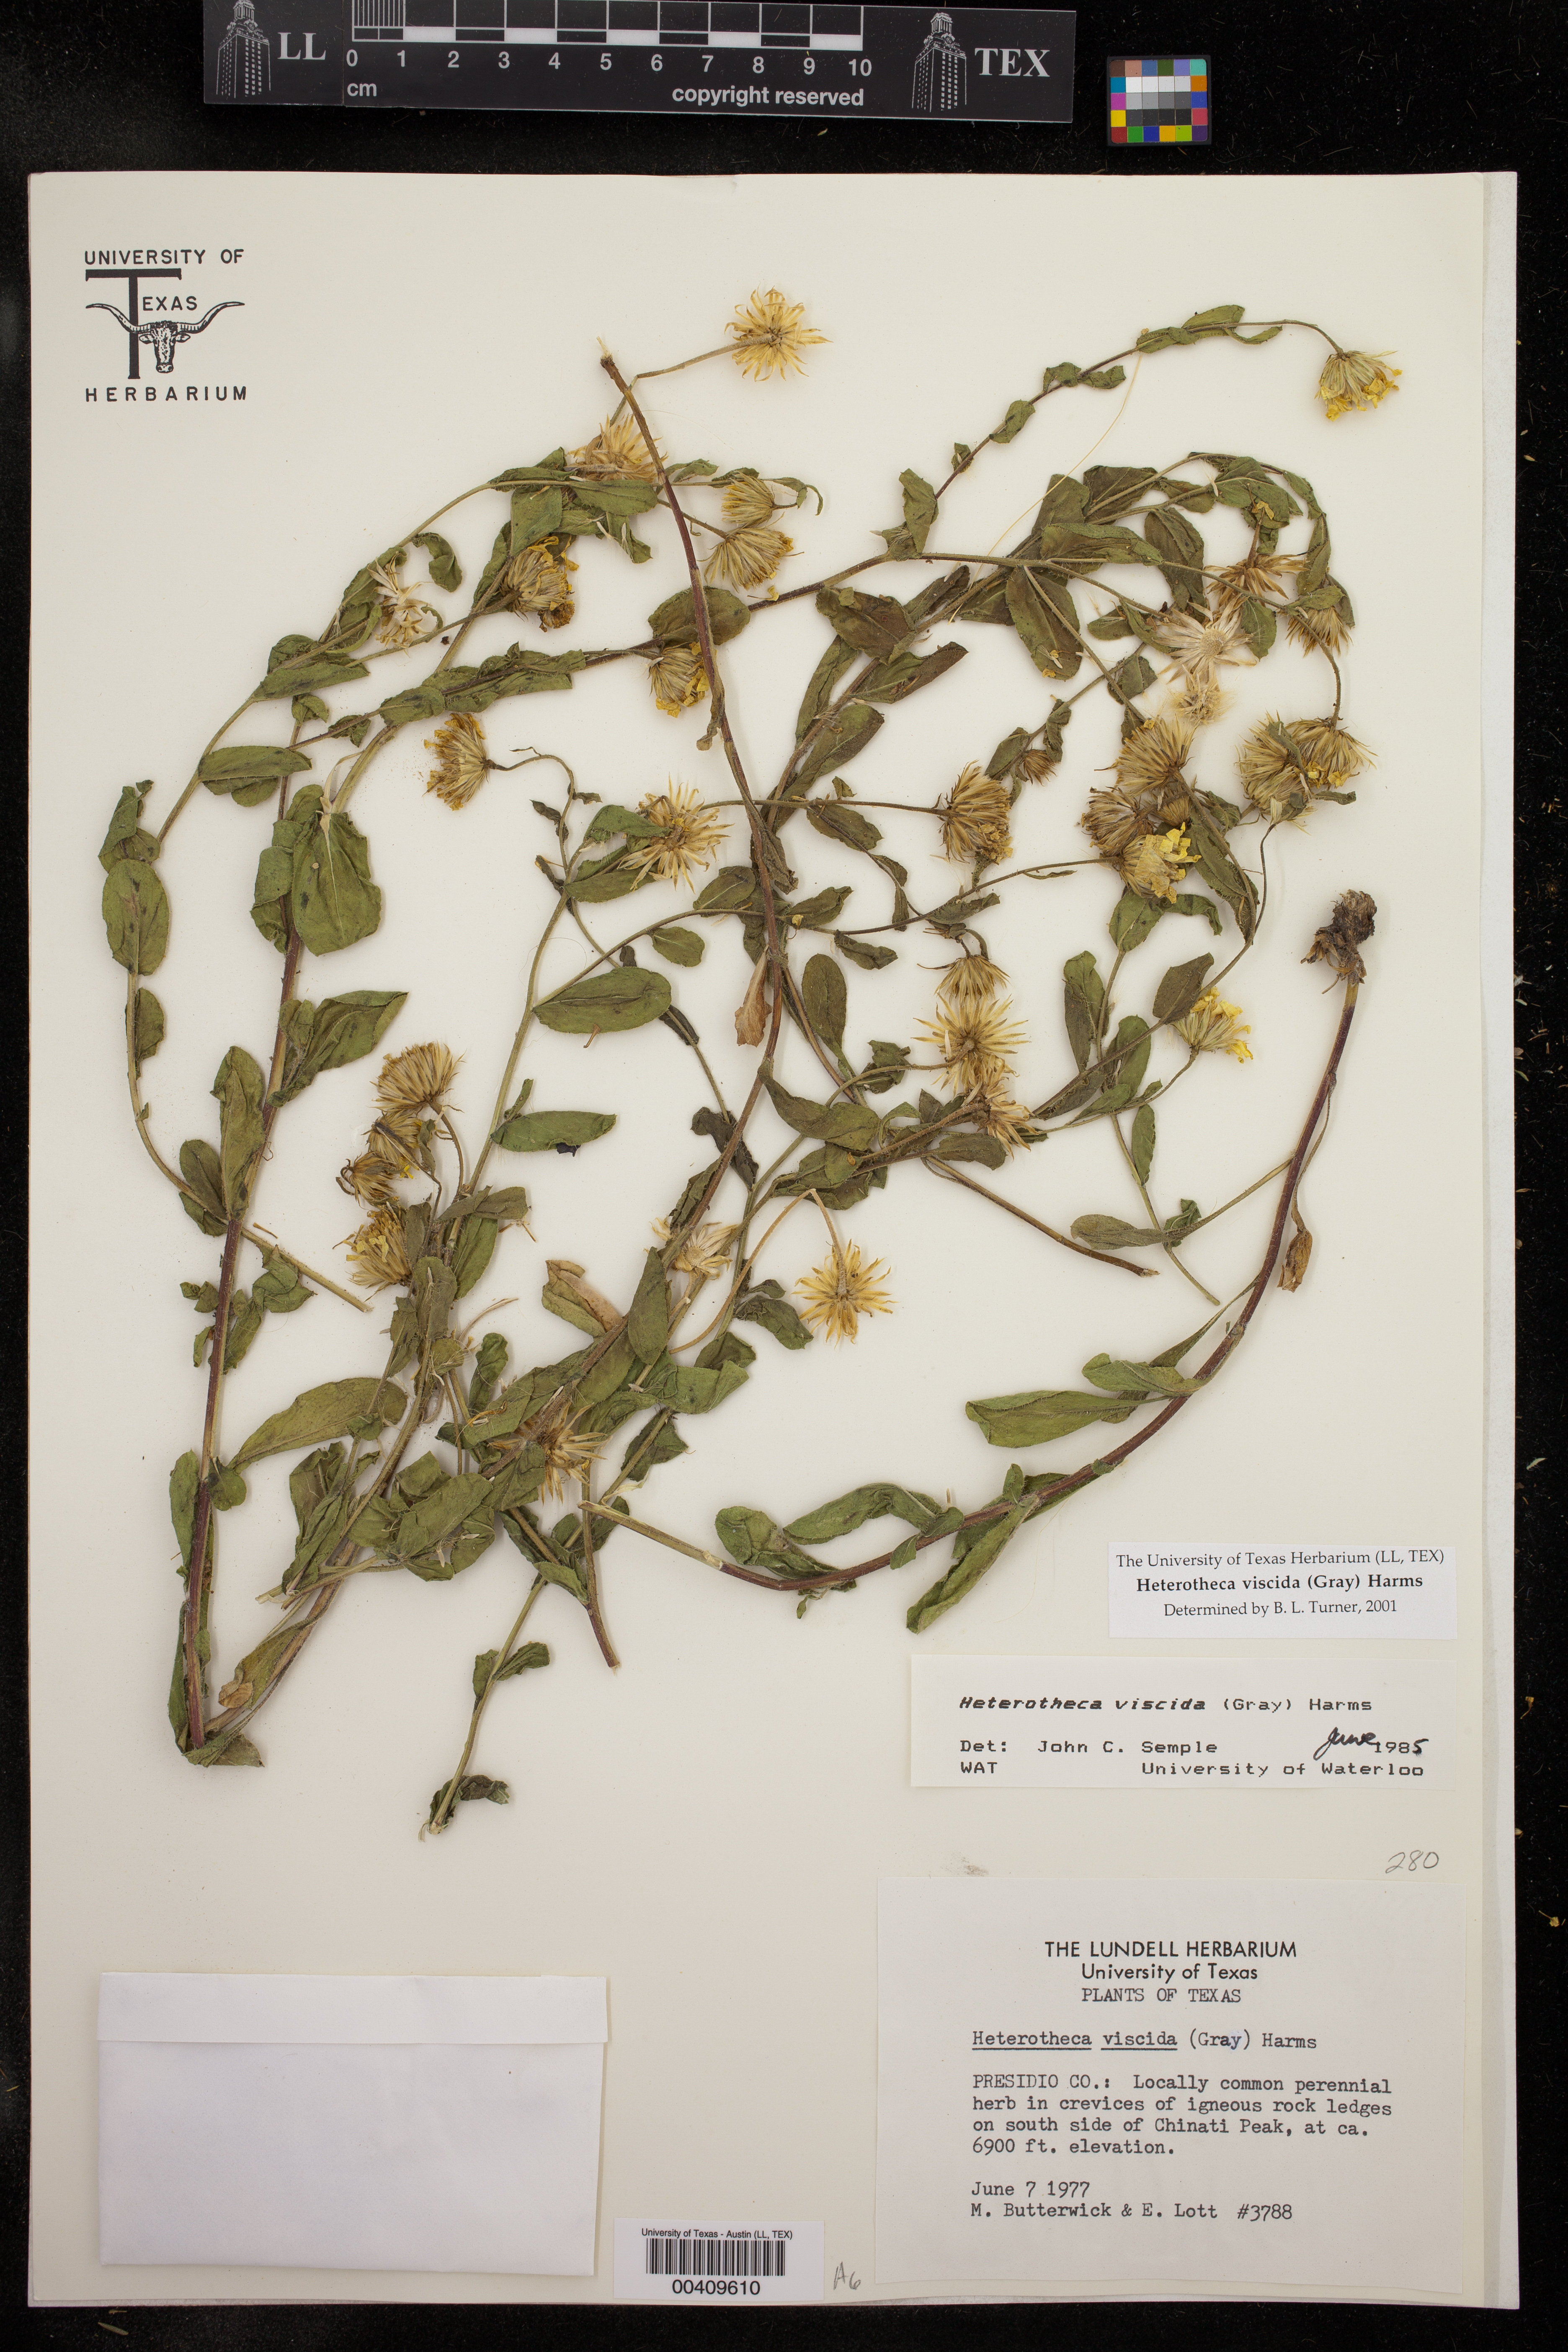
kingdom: Plantae
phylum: Tracheophyta
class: Magnoliopsida
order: Asterales
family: Asteraceae
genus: Heterotheca
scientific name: Heterotheca viscida
